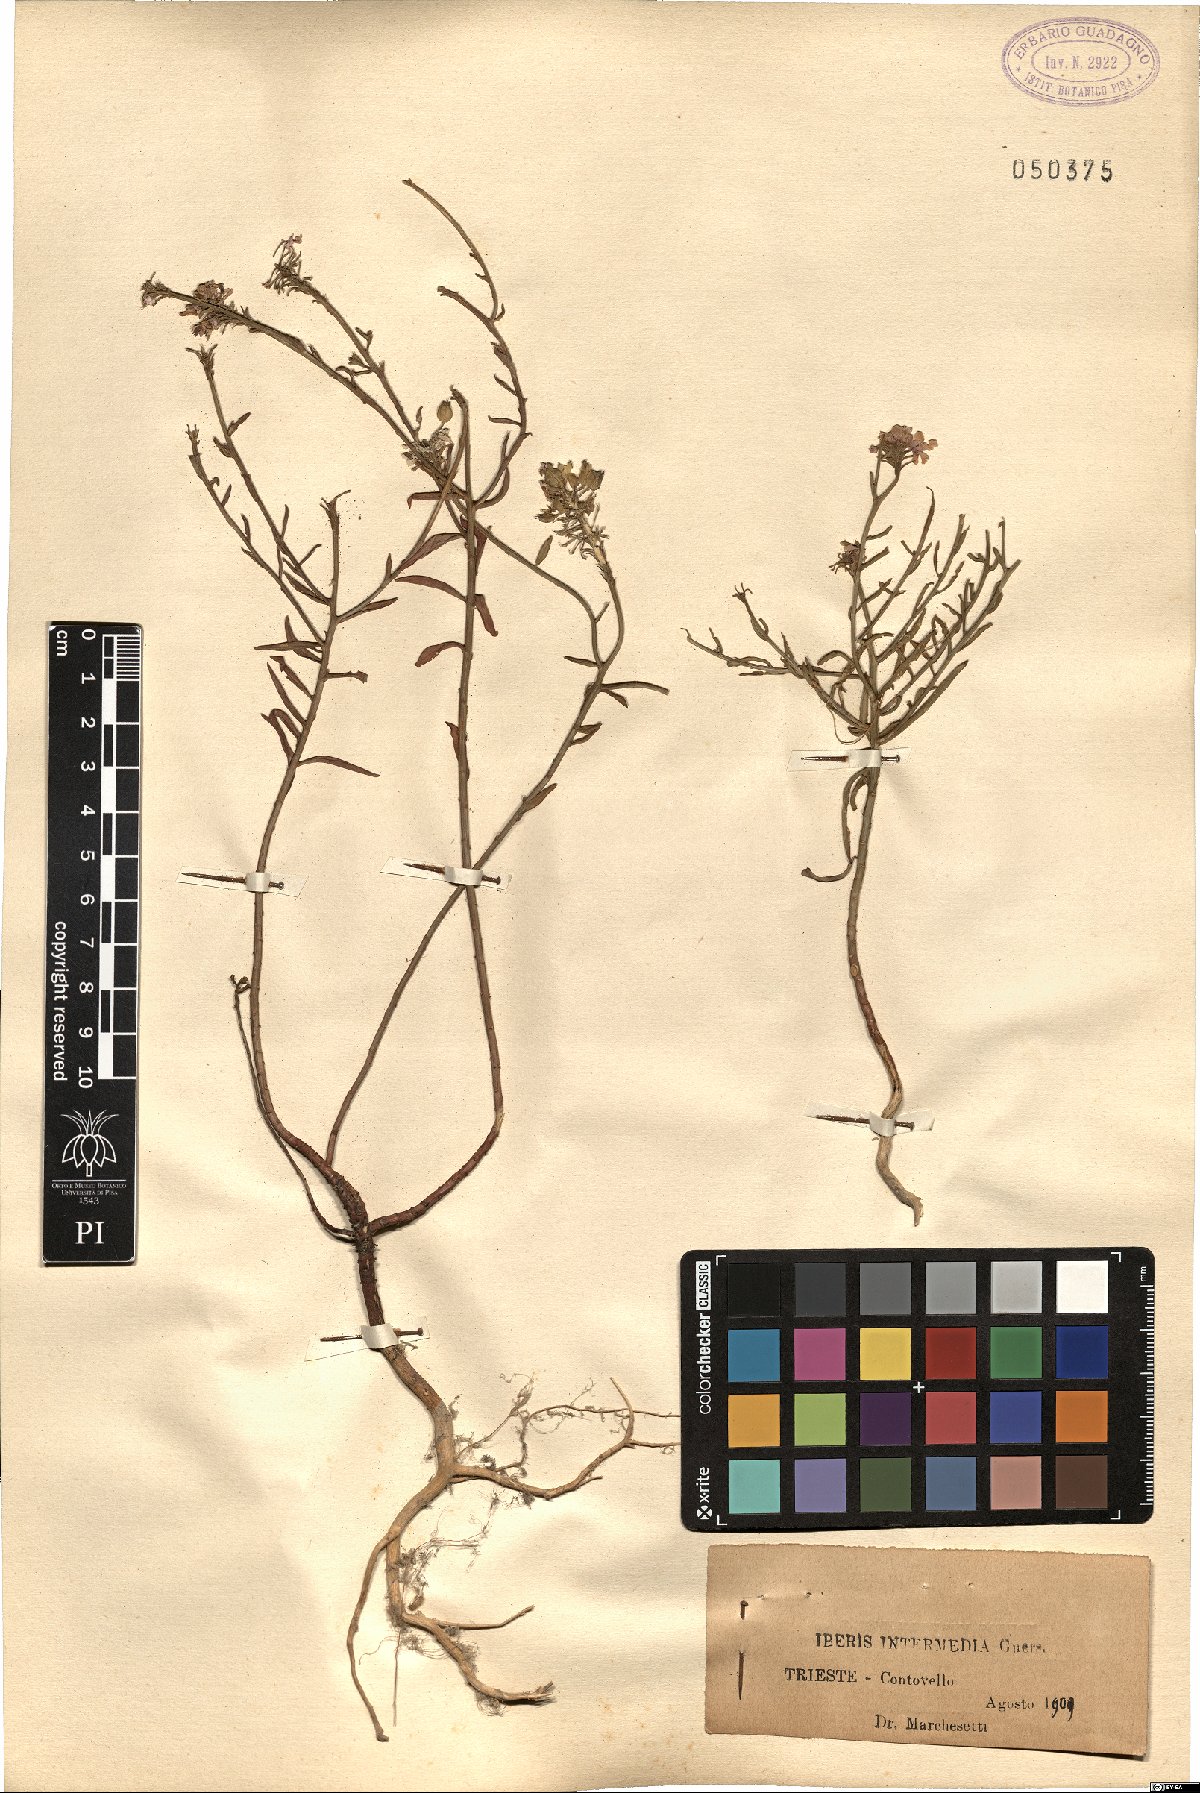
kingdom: Plantae
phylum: Tracheophyta
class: Magnoliopsida
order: Brassicales
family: Brassicaceae
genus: Iberis
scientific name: Iberis linifolia
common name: Candytuft
